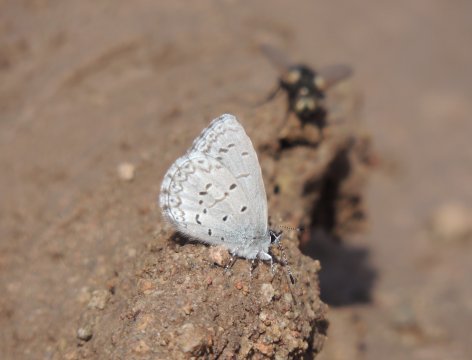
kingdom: Animalia
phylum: Arthropoda
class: Insecta
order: Lepidoptera
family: Lycaenidae
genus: Celastrina
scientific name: Celastrina ladon
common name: Echo Azure
